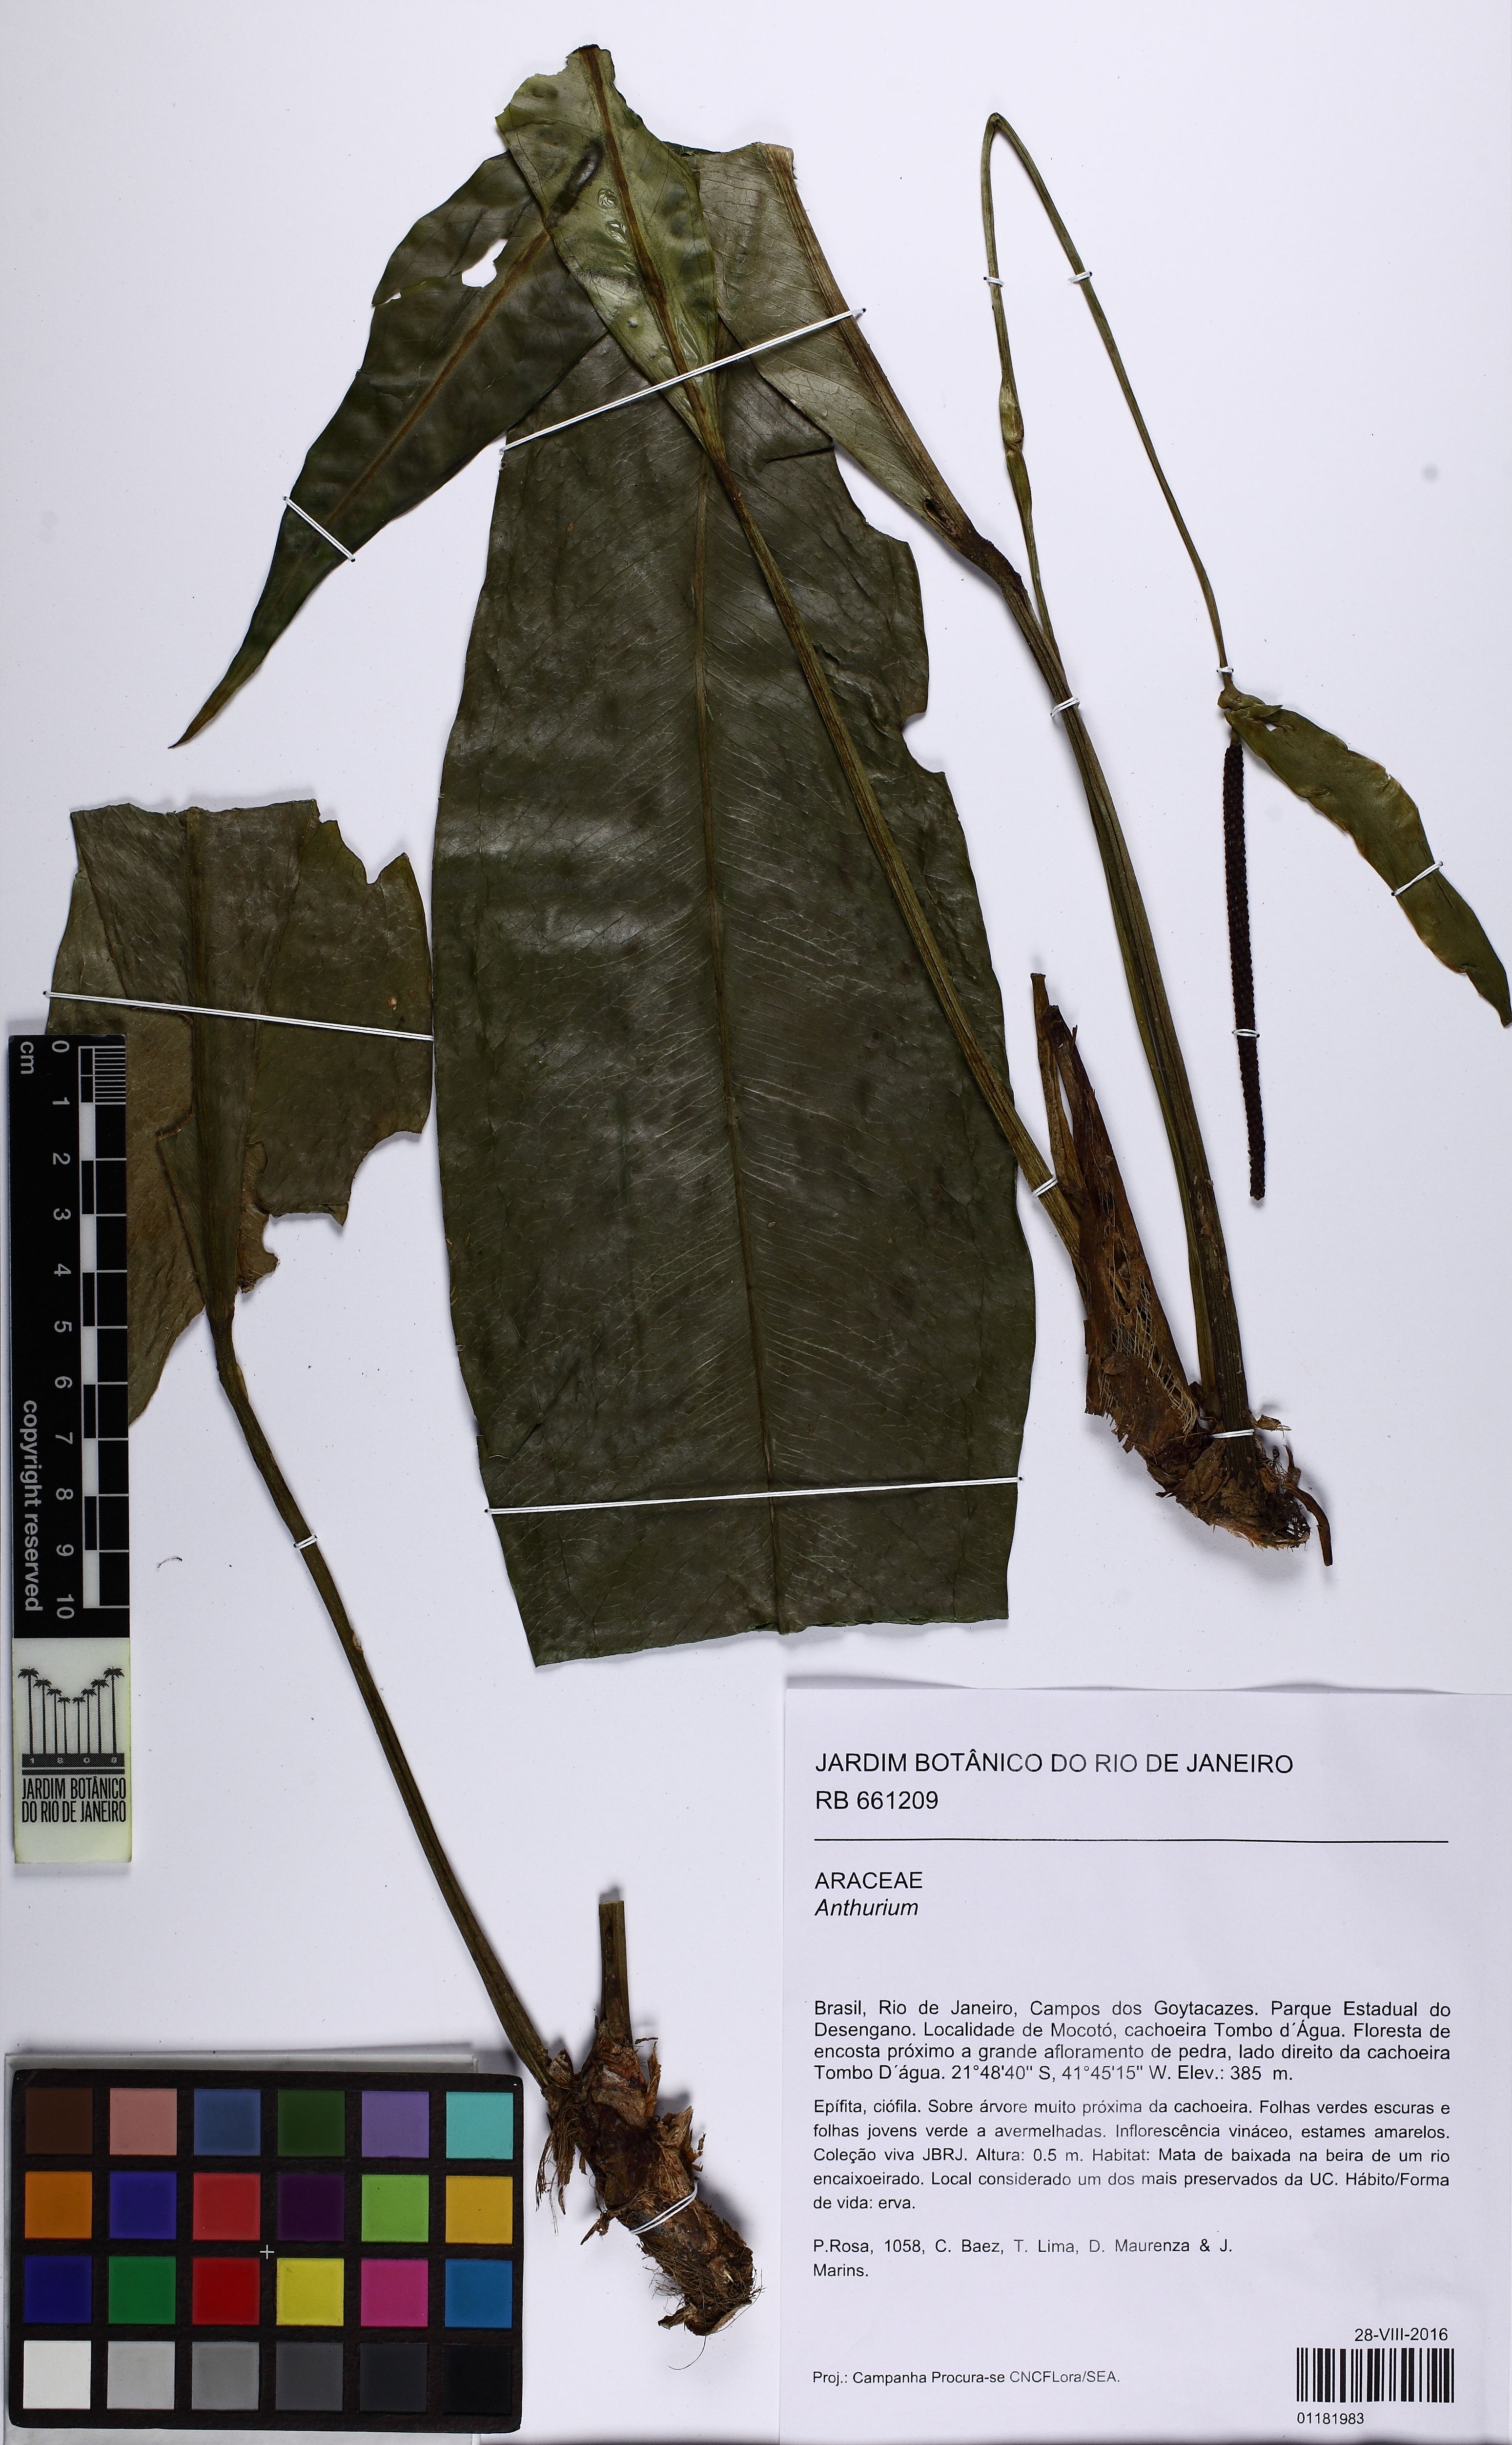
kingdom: Plantae
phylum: Tracheophyta
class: Liliopsida
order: Alismatales
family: Araceae
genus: Anthurium
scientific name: Anthurium
